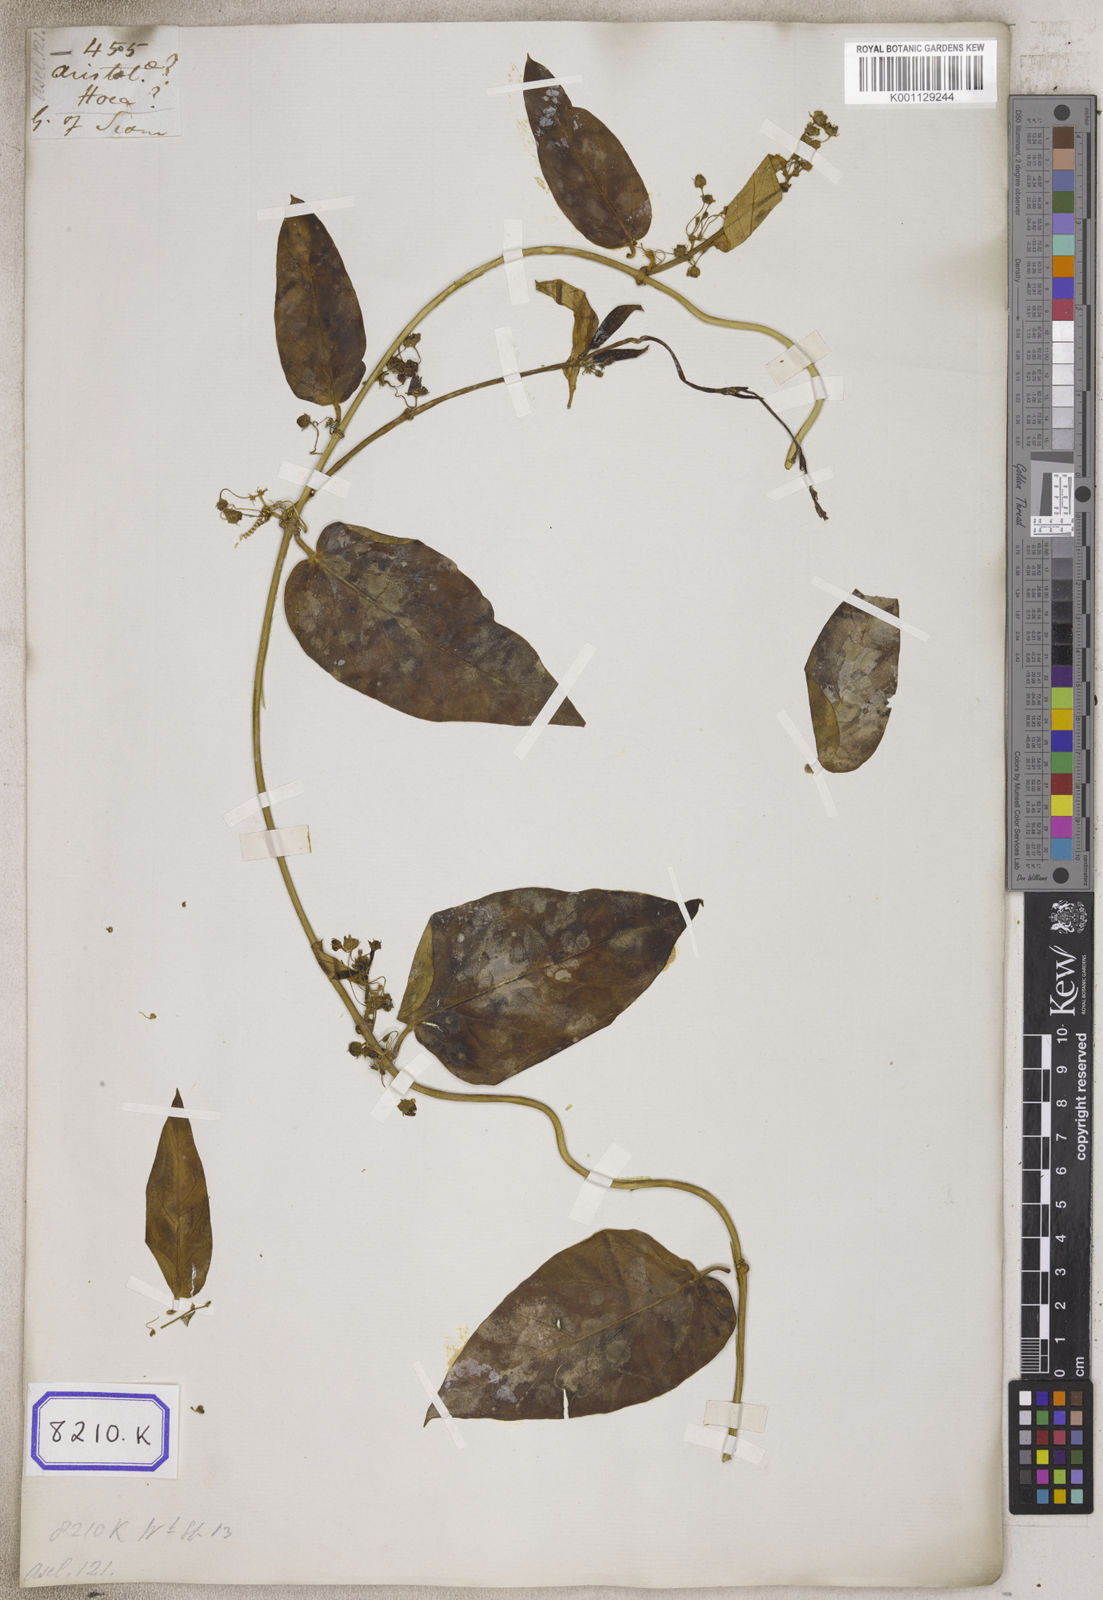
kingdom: Plantae
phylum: Tracheophyta
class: Magnoliopsida
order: Gentianales
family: Apocynaceae
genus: Vincetoxicum
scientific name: Vincetoxicum indicum
